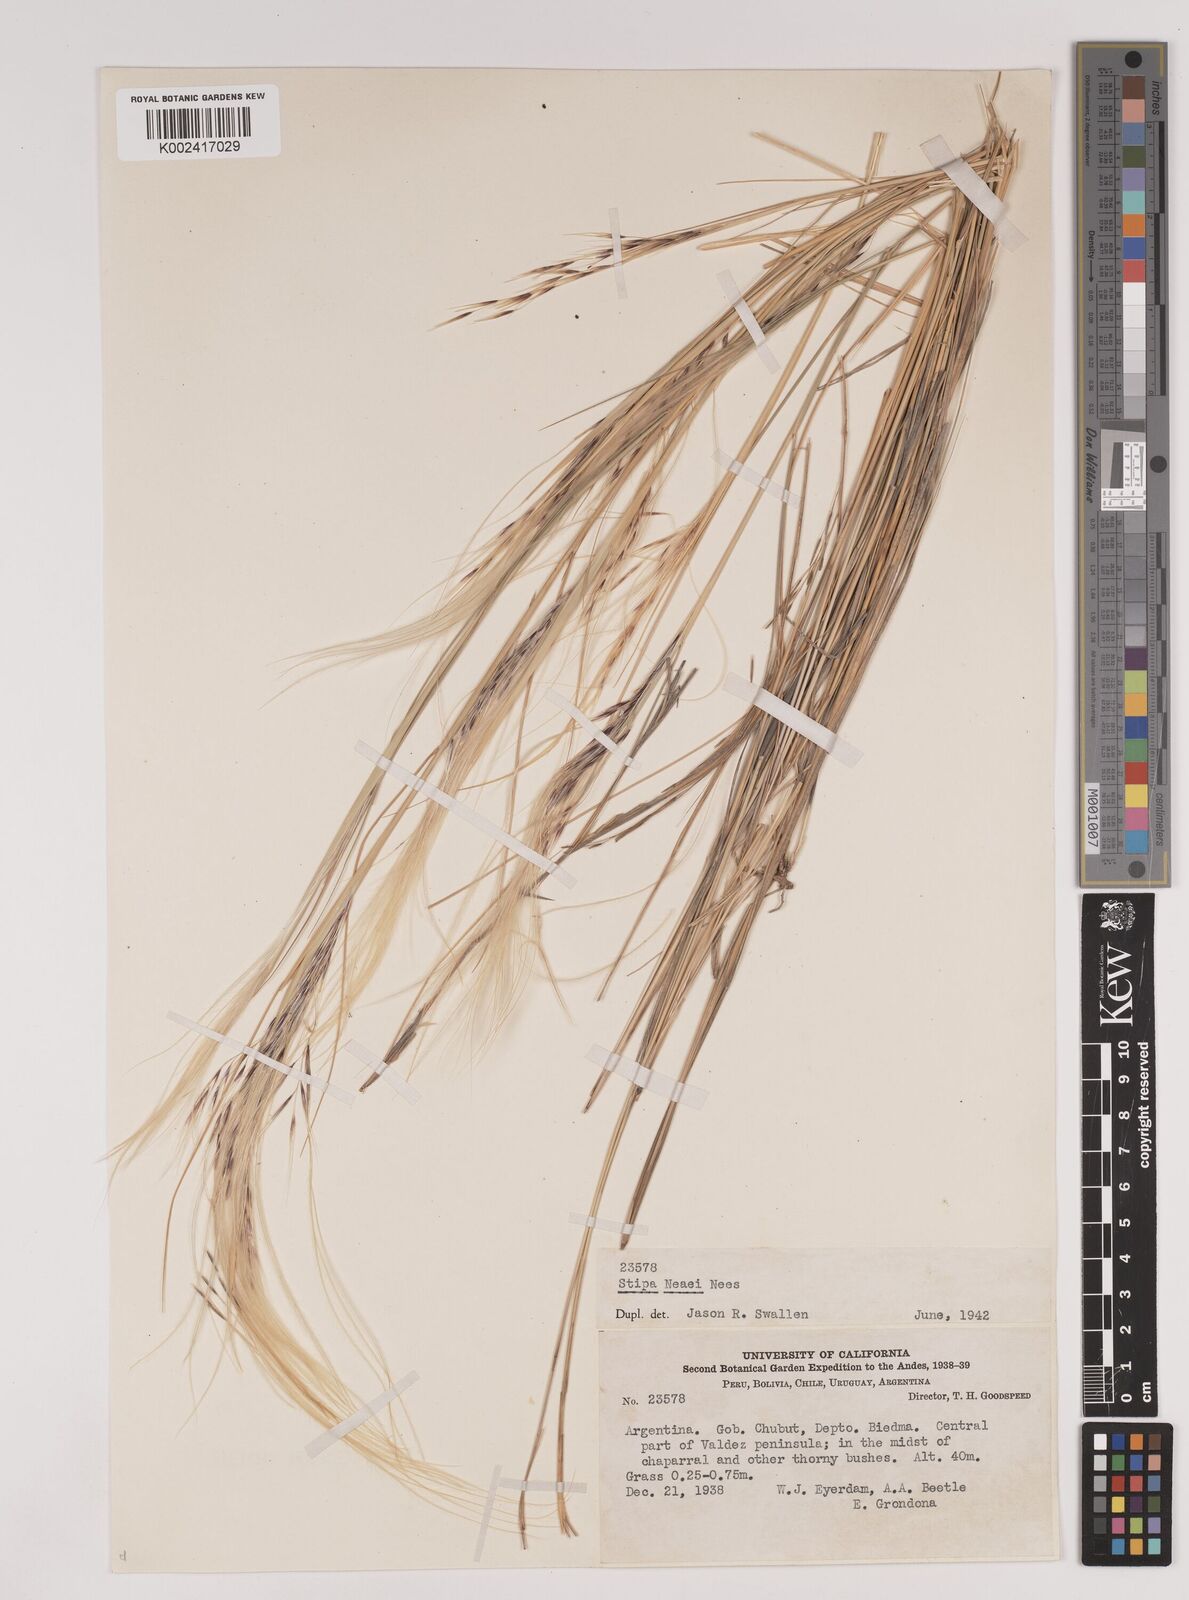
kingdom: Plantae
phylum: Tracheophyta
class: Liliopsida
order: Poales
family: Poaceae
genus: Stipa
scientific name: Stipa neaei
